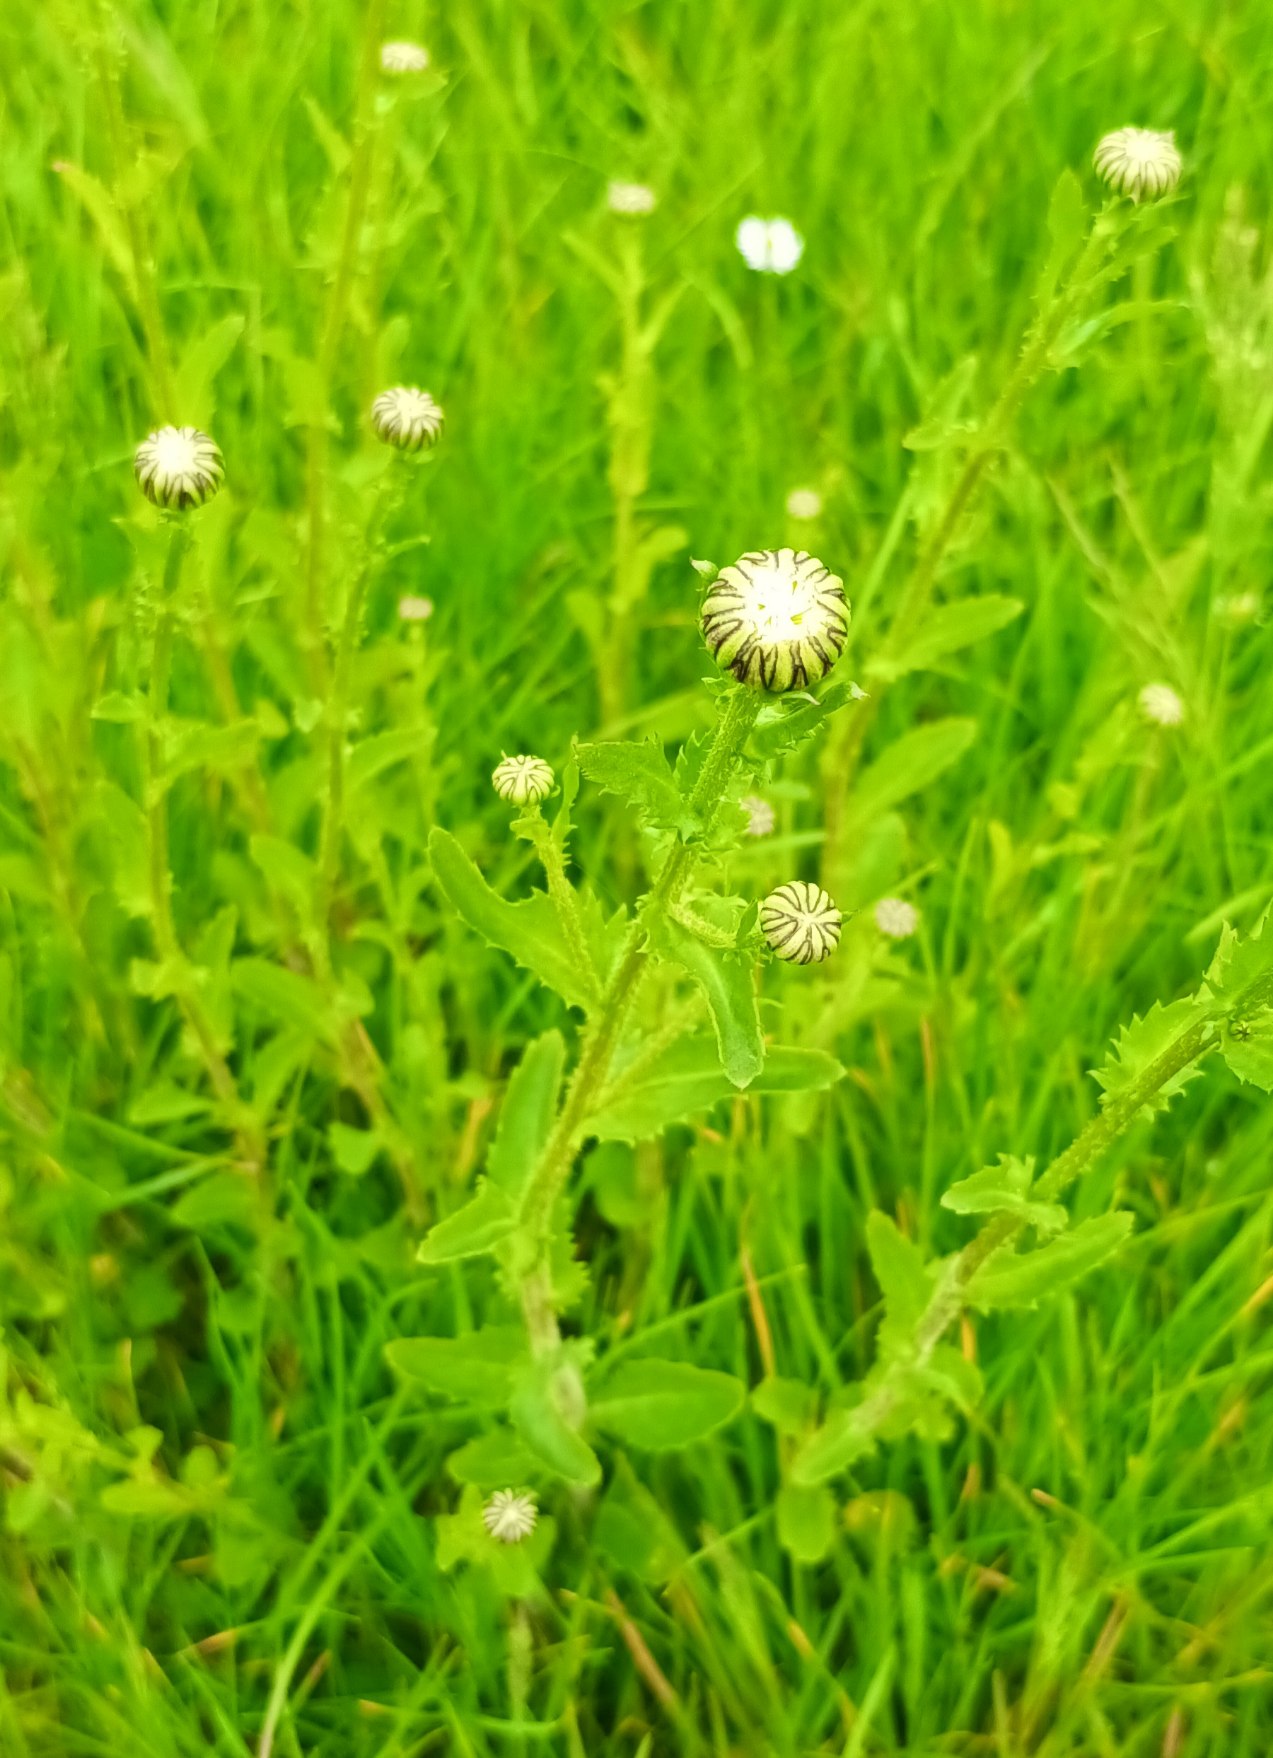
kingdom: Plantae
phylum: Tracheophyta
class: Magnoliopsida
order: Asterales
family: Asteraceae
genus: Leucanthemum
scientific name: Leucanthemum vulgare
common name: Hvid okseøje
